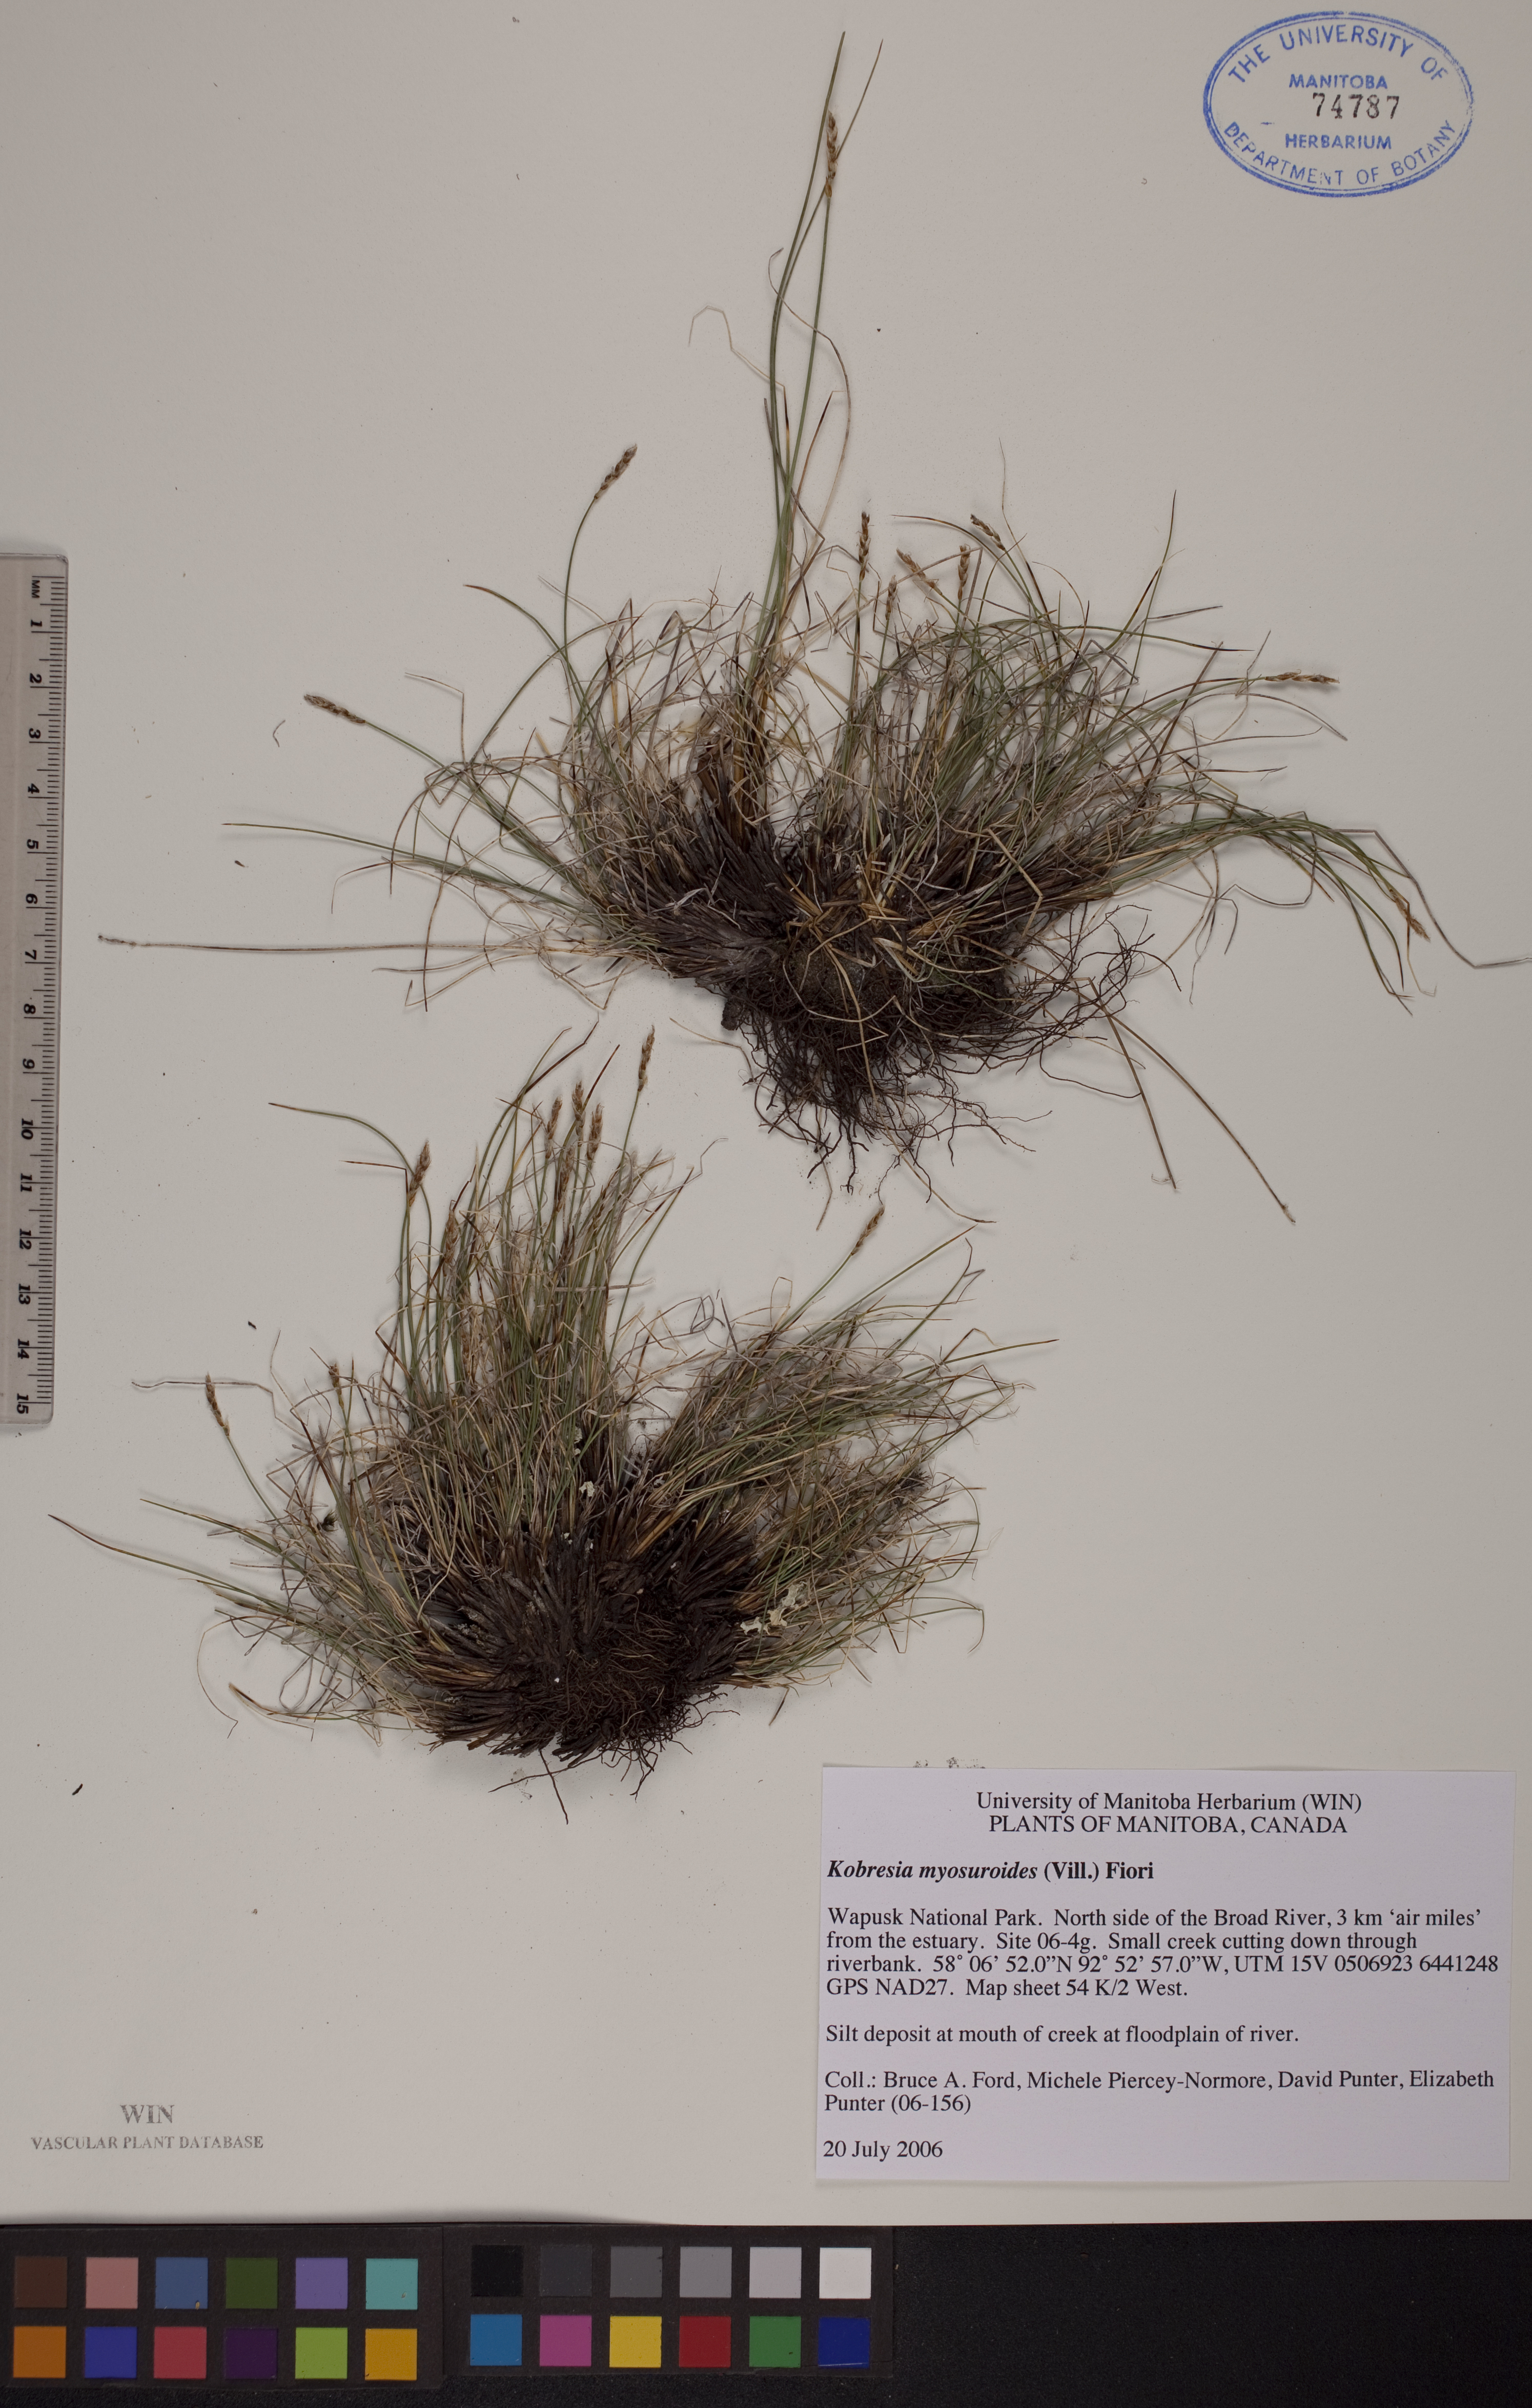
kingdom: Plantae
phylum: Tracheophyta
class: Liliopsida
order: Poales
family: Cyperaceae
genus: Carex
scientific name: Carex myosuroides
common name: Bellard's bog sedge
